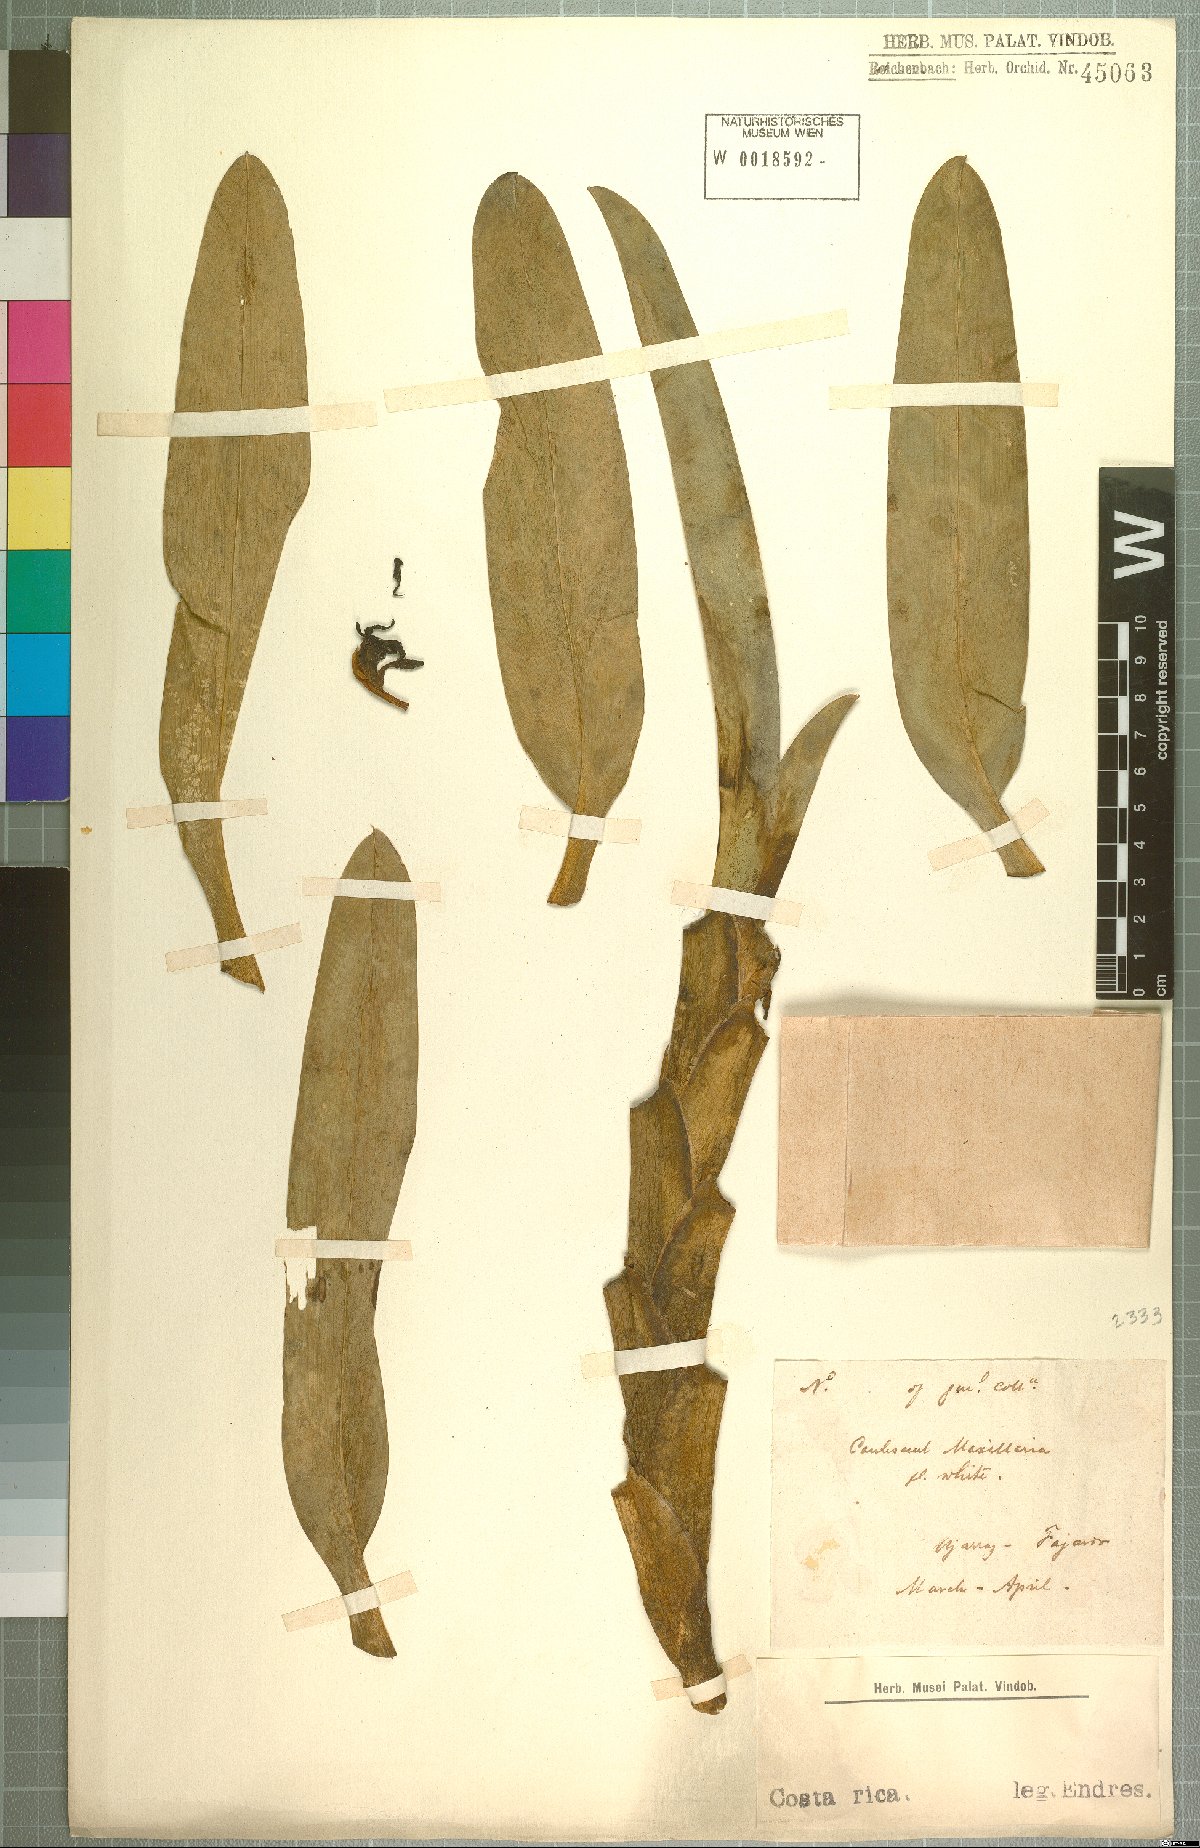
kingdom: Plantae
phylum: Tracheophyta
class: Liliopsida
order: Asparagales
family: Orchidaceae
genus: Maxillaria
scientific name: Maxillaria
